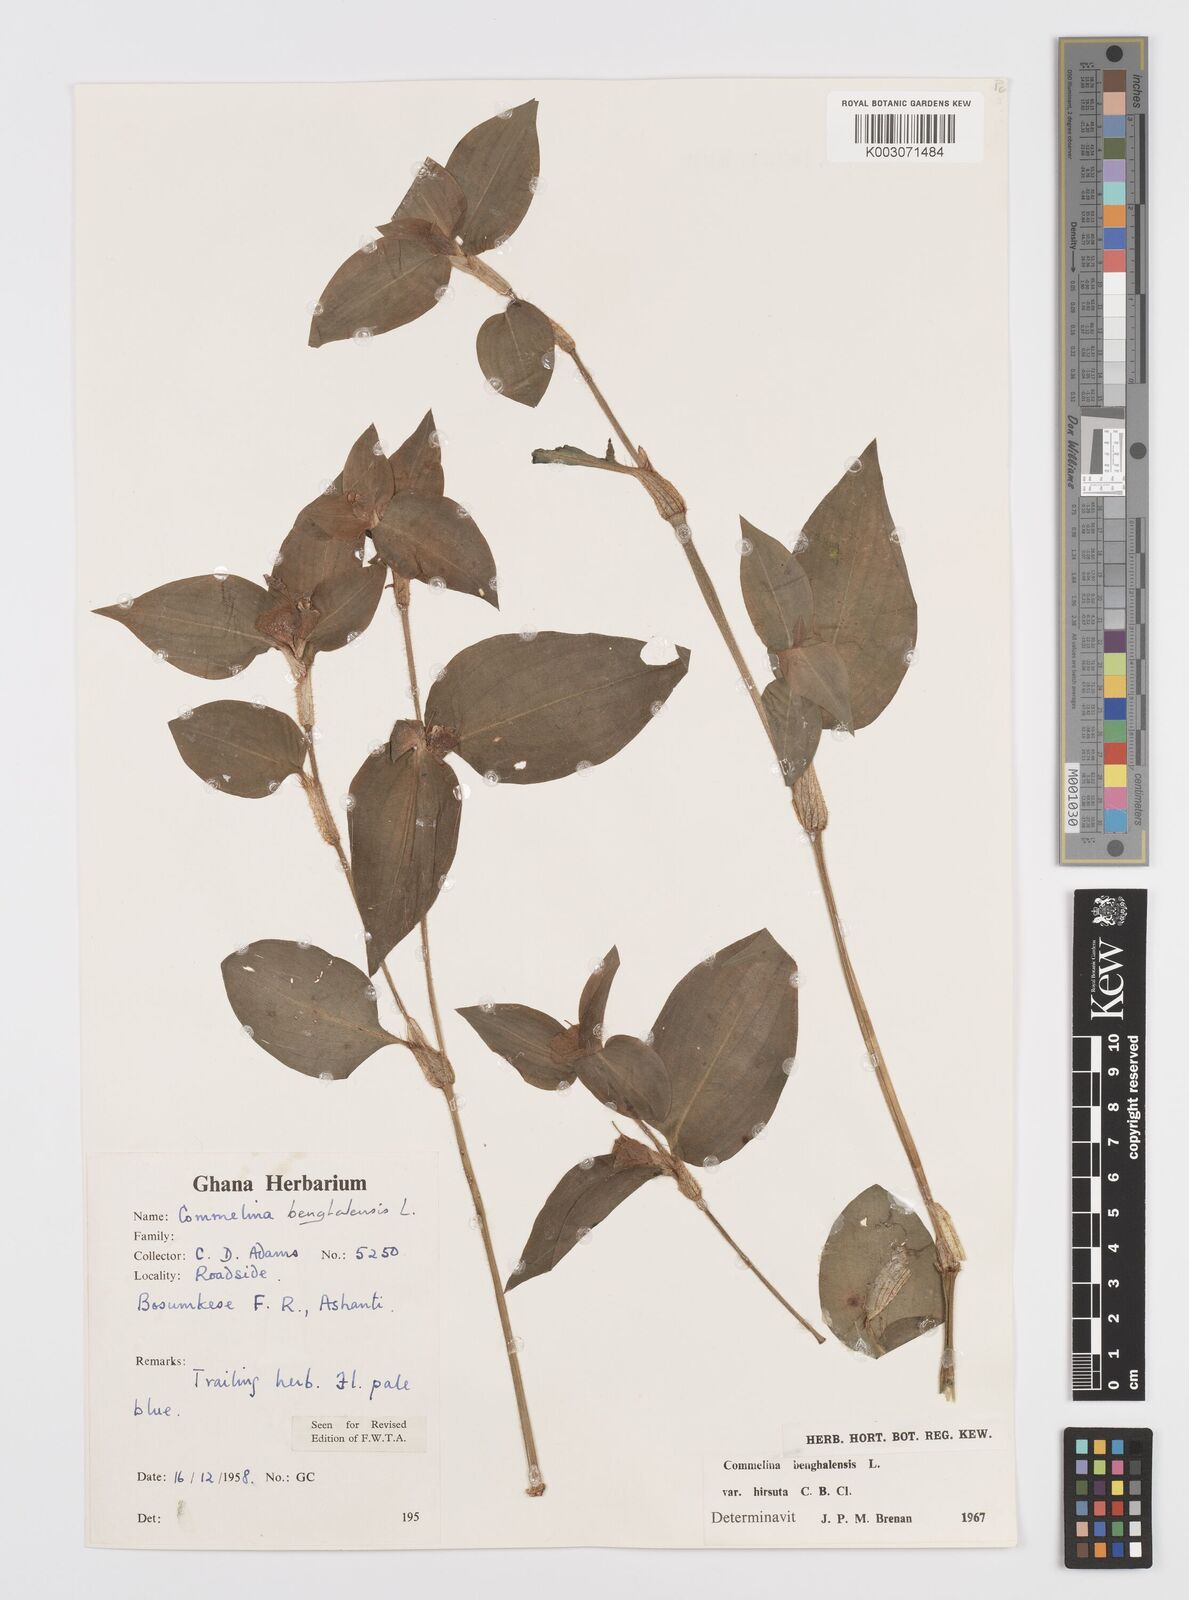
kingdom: Plantae
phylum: Tracheophyta
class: Liliopsida
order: Commelinales
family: Commelinaceae
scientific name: Commelinaceae
